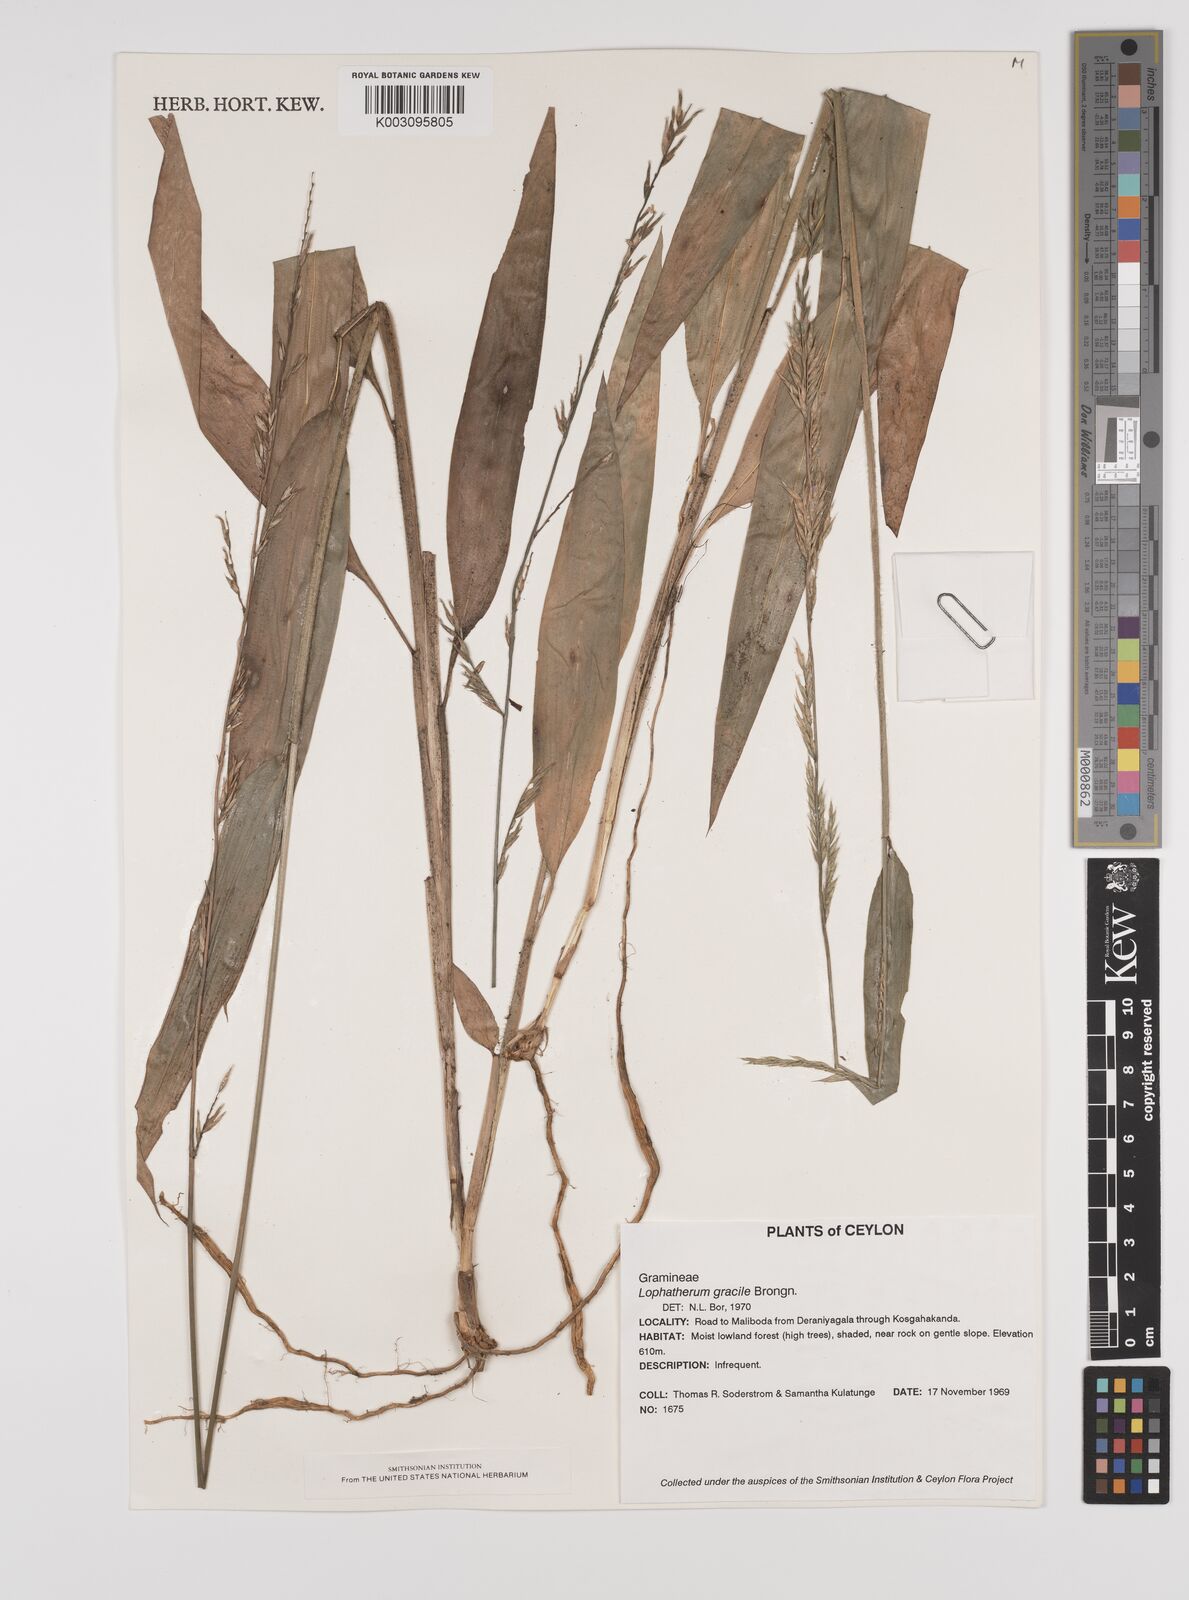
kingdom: Plantae
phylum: Tracheophyta
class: Liliopsida
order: Poales
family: Poaceae
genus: Lophatherum
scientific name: Lophatherum gracile
